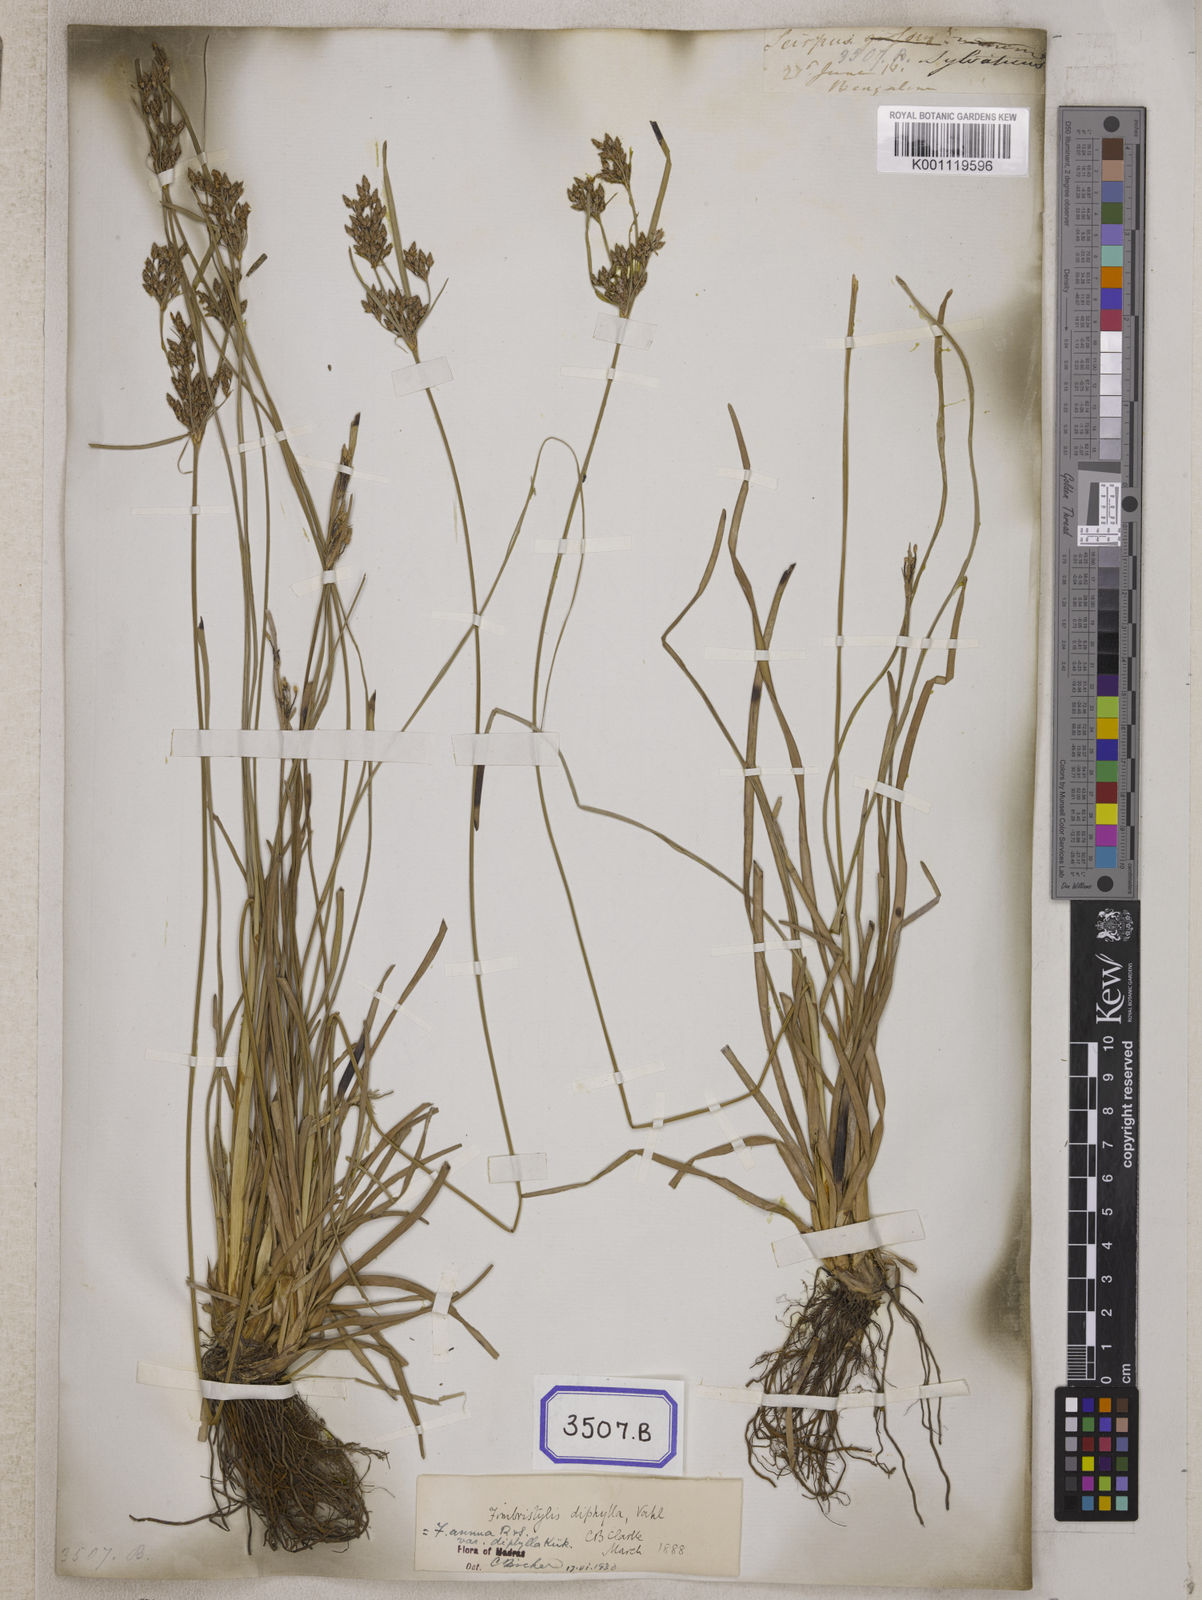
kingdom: Plantae
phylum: Tracheophyta
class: Liliopsida
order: Poales
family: Cyperaceae
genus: Fimbristylis
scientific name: Fimbristylis
